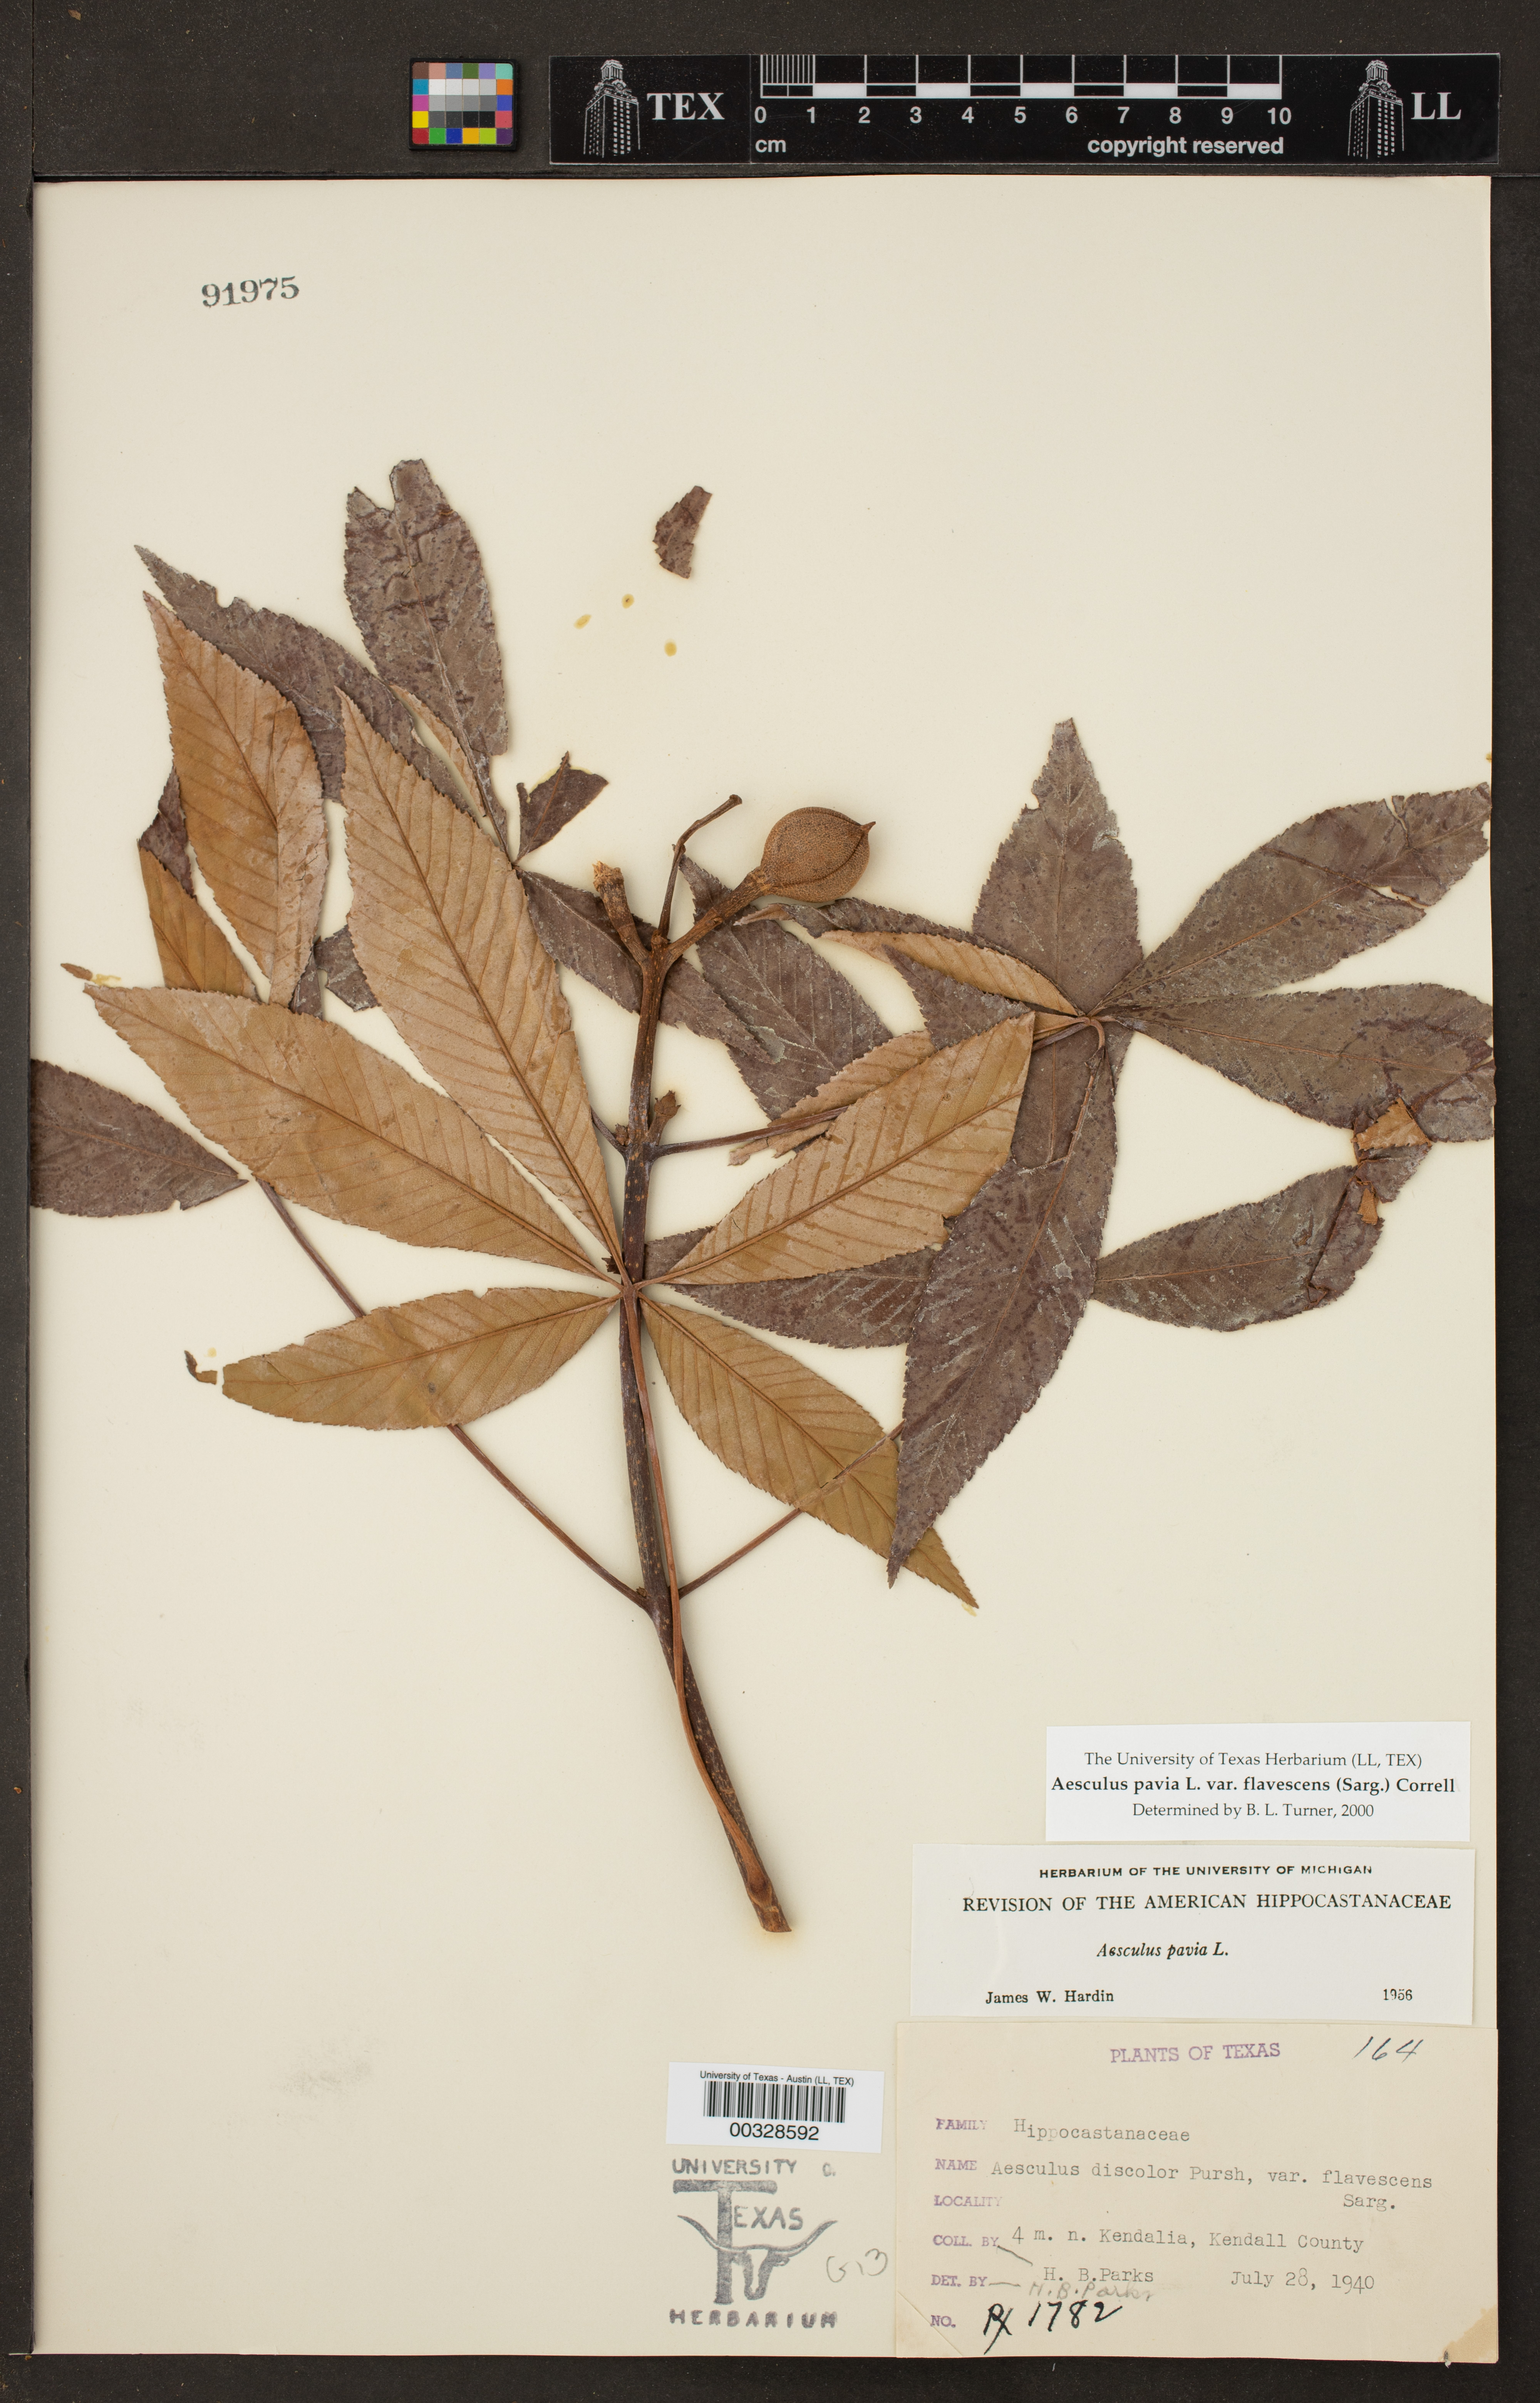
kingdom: Plantae
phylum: Tracheophyta
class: Magnoliopsida
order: Sapindales
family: Sapindaceae
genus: Aesculus
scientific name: Aesculus pavia
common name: Red buckeye
